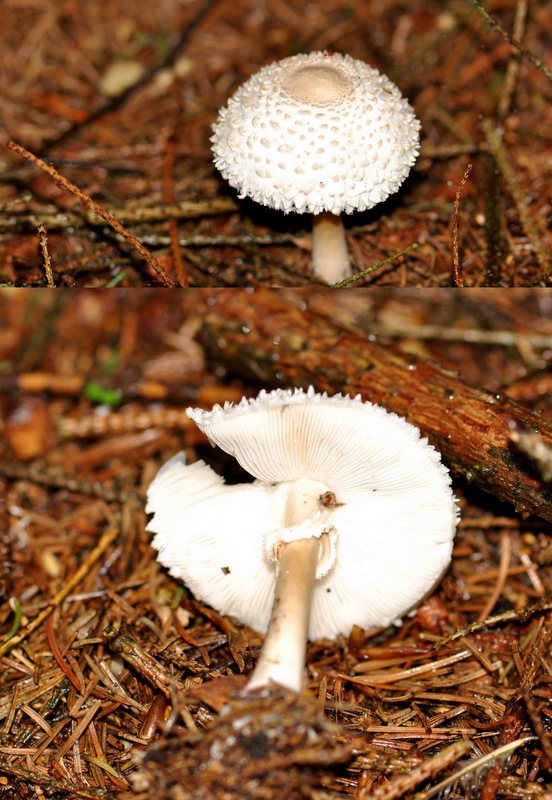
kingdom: Fungi
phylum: Basidiomycota
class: Agaricomycetes
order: Agaricales
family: Agaricaceae
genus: Leucoagaricus
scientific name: Leucoagaricus nympharum
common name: gran-silkehat
